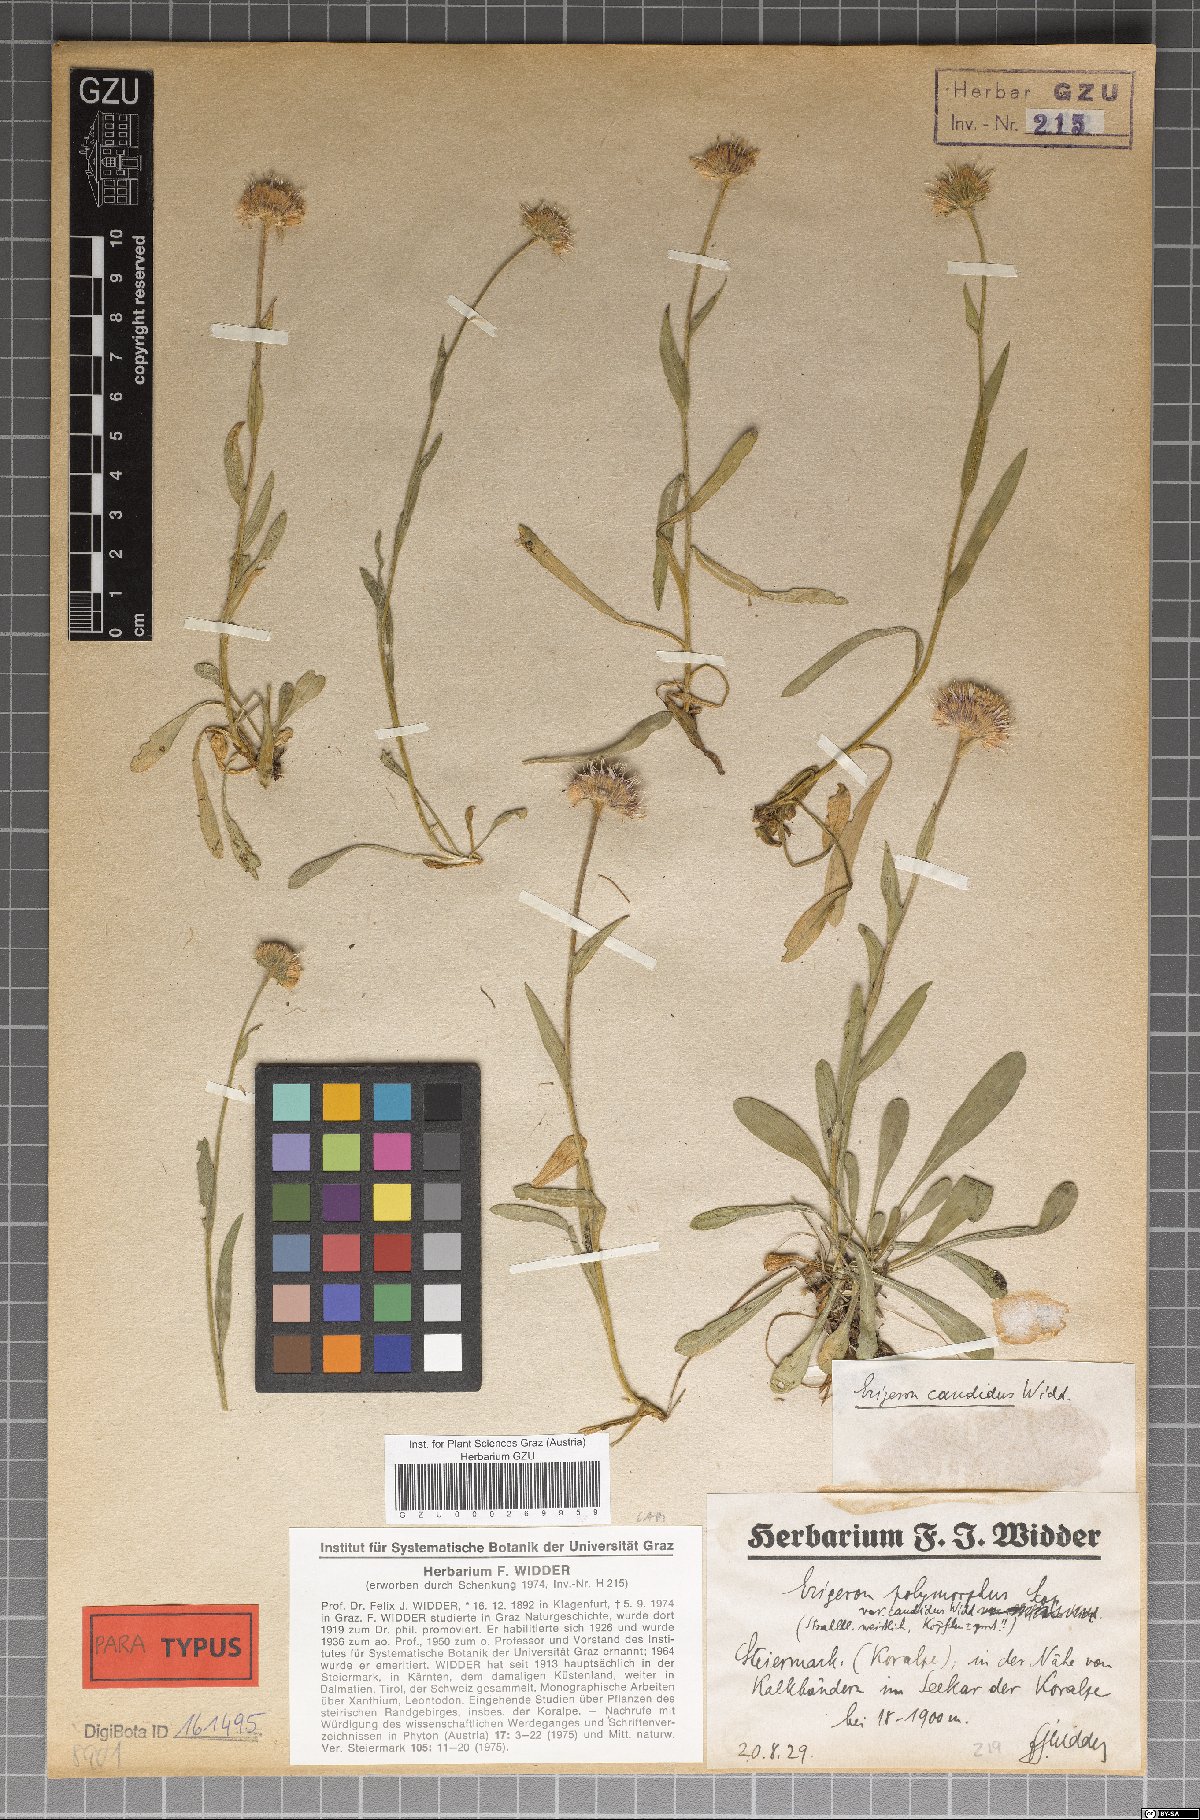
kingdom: Plantae
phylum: Tracheophyta
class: Magnoliopsida
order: Asterales
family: Asteraceae
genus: Erigeron
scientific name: Erigeron glabratus
